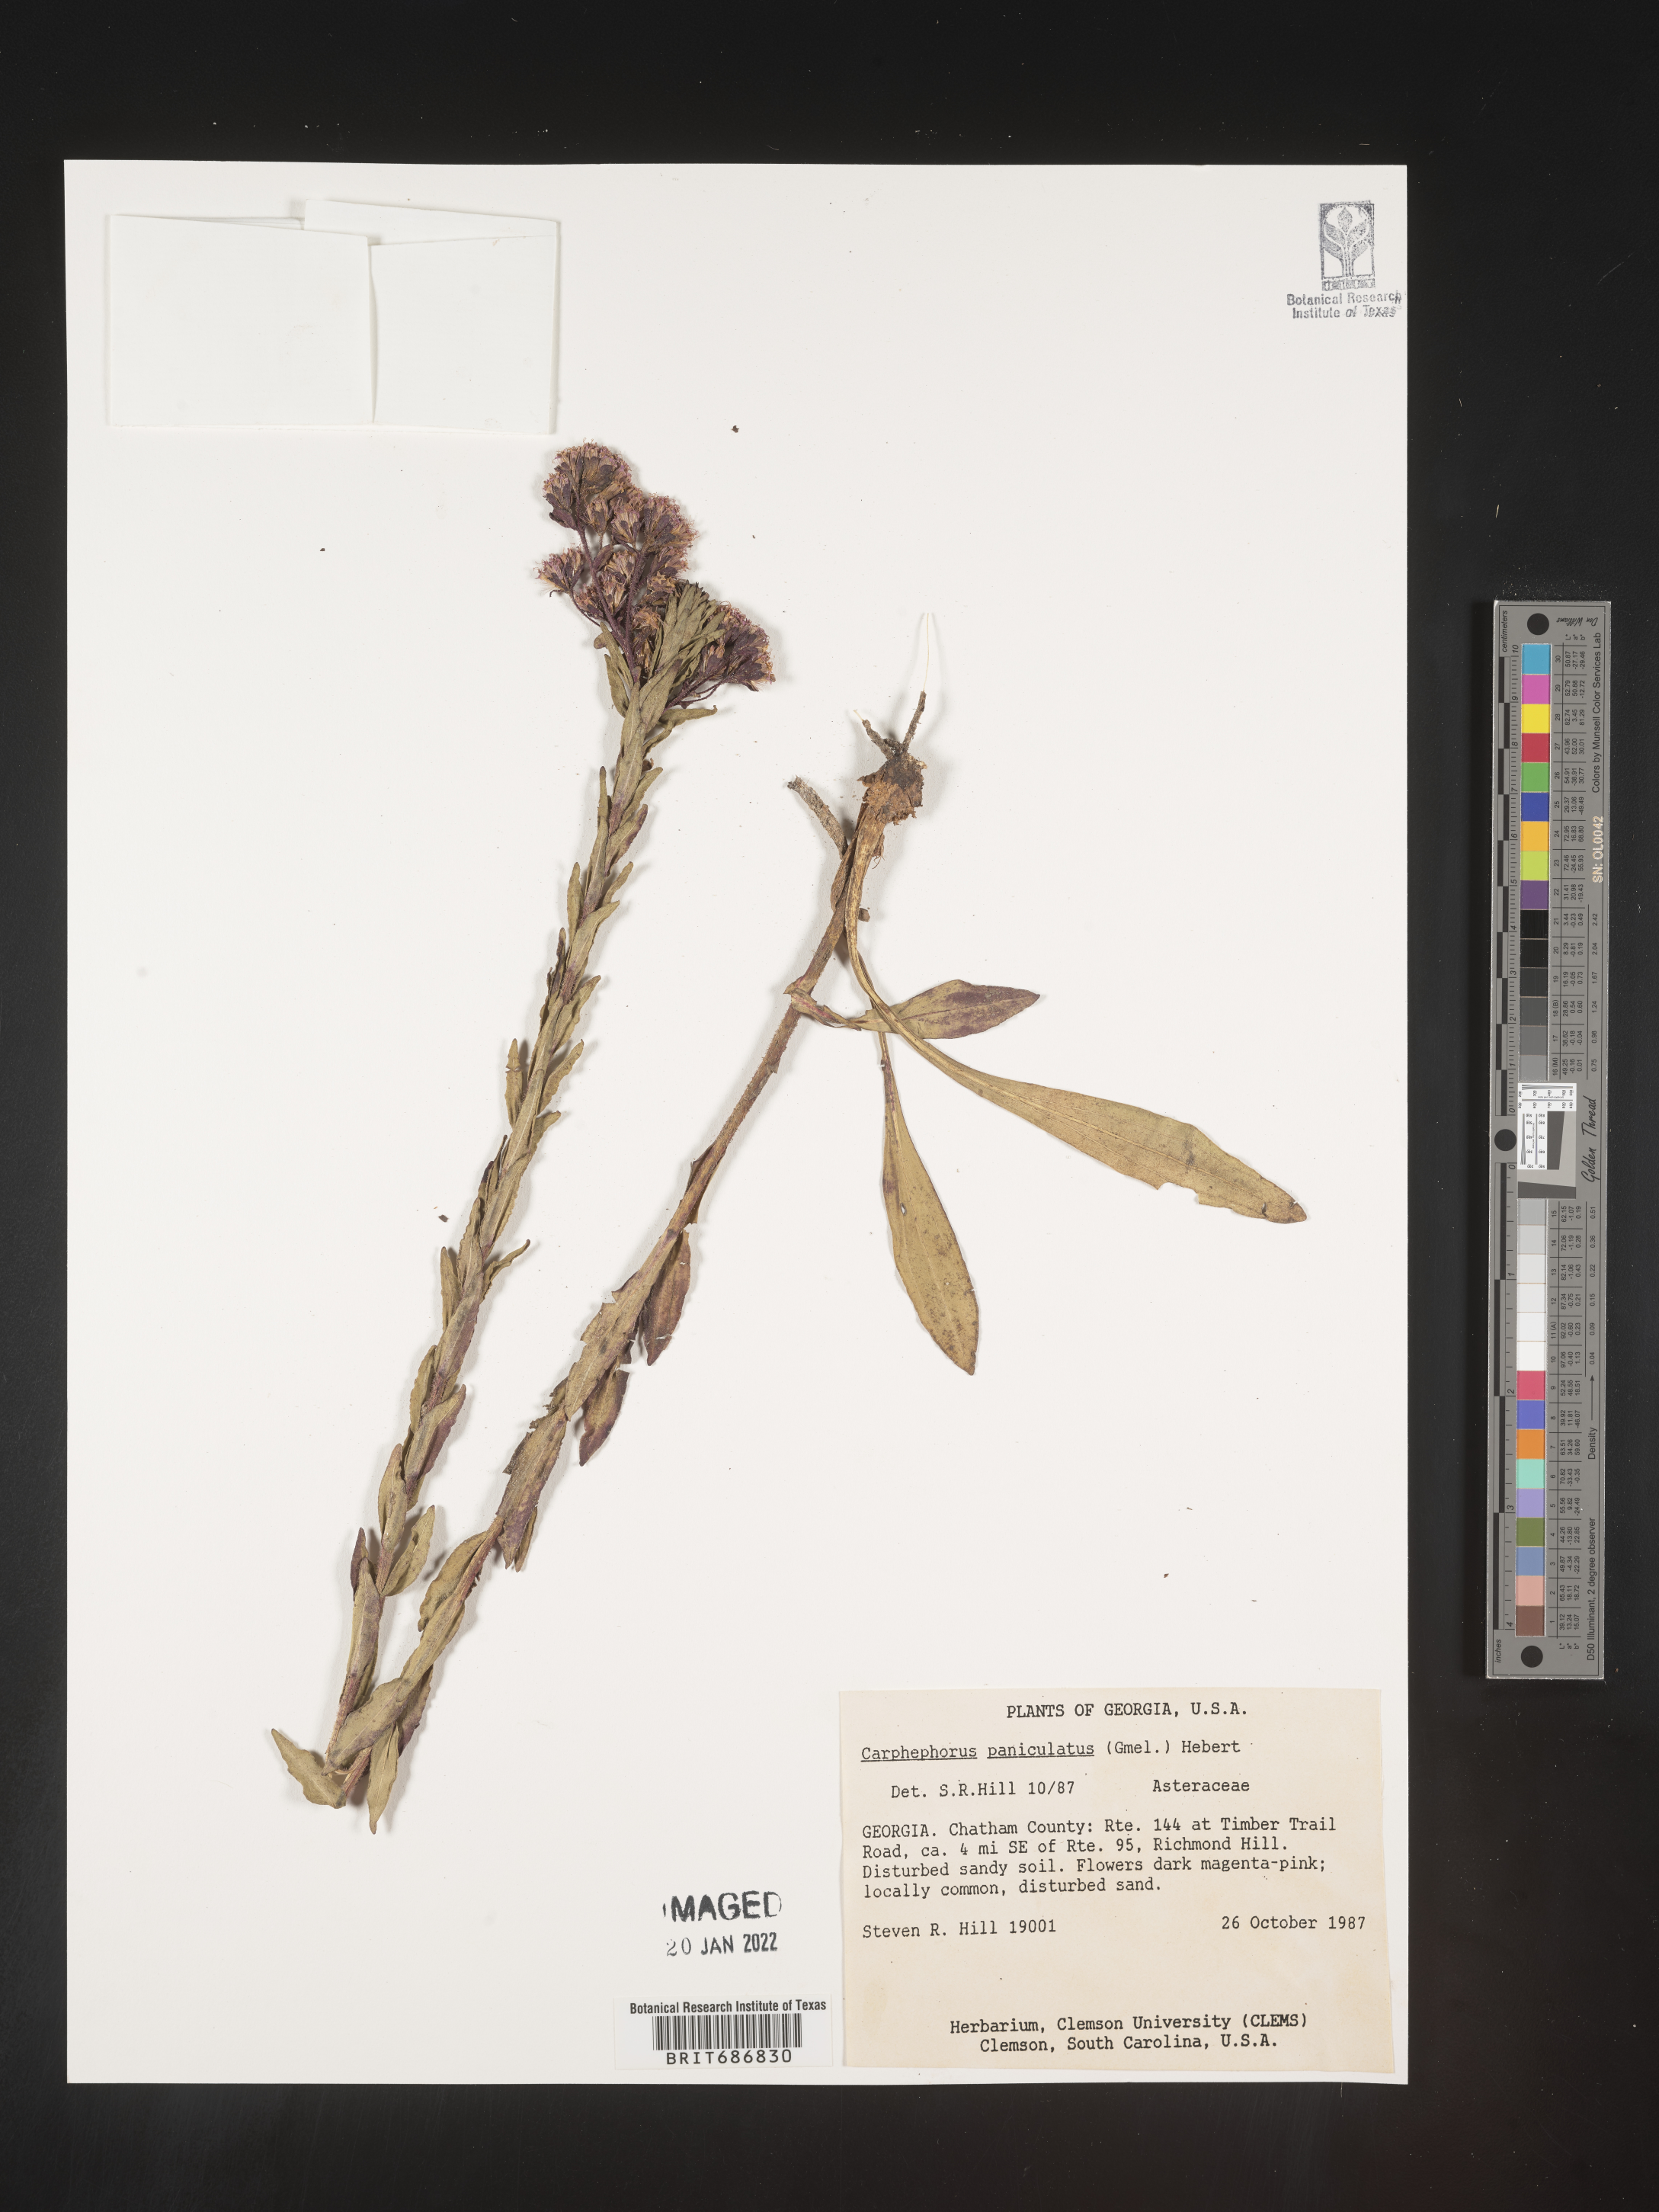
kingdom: Plantae
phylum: Tracheophyta
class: Magnoliopsida
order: Asterales
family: Asteraceae
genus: Carphephorus
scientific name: Carphephorus paniculatus
